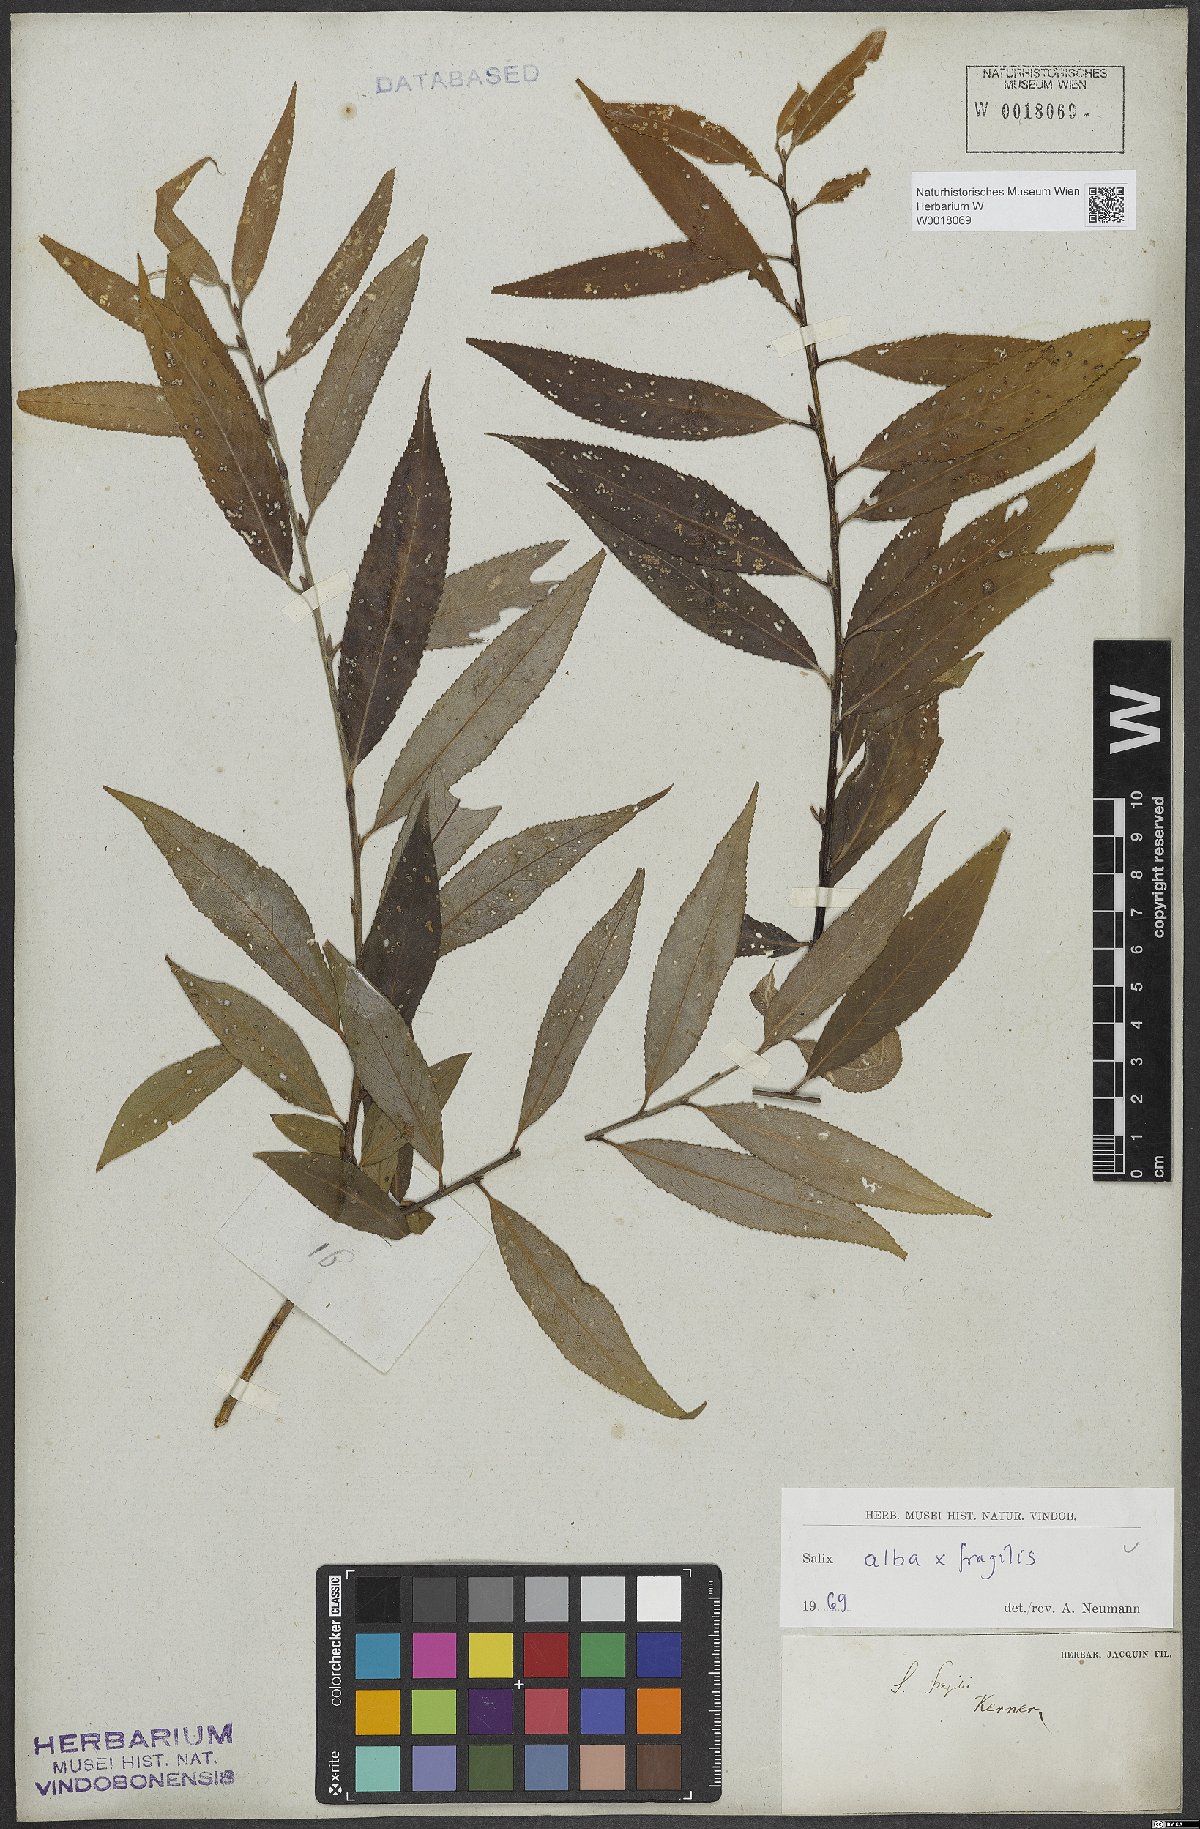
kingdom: Plantae
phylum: Tracheophyta
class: Magnoliopsida
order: Malpighiales
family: Salicaceae
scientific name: Salicaceae
